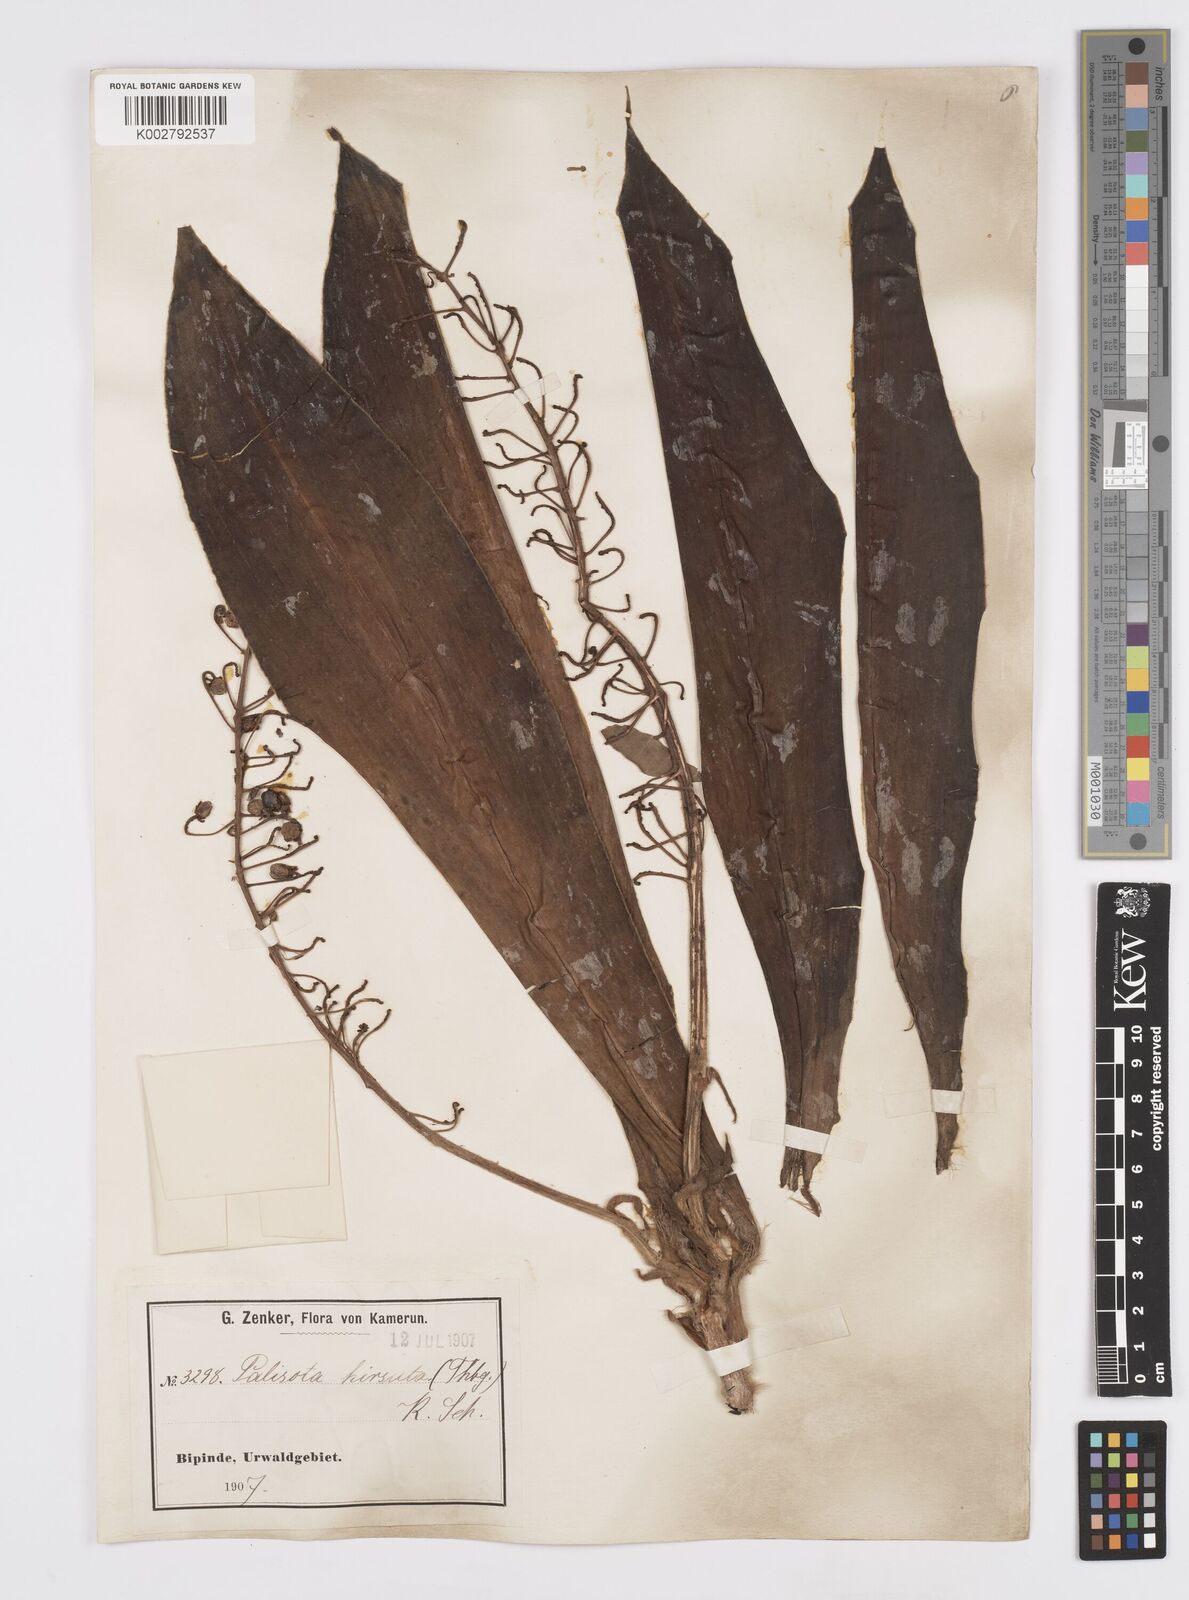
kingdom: Plantae
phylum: Tracheophyta
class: Liliopsida
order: Commelinales
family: Commelinaceae
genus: Palisota
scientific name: Palisota hirsuta
